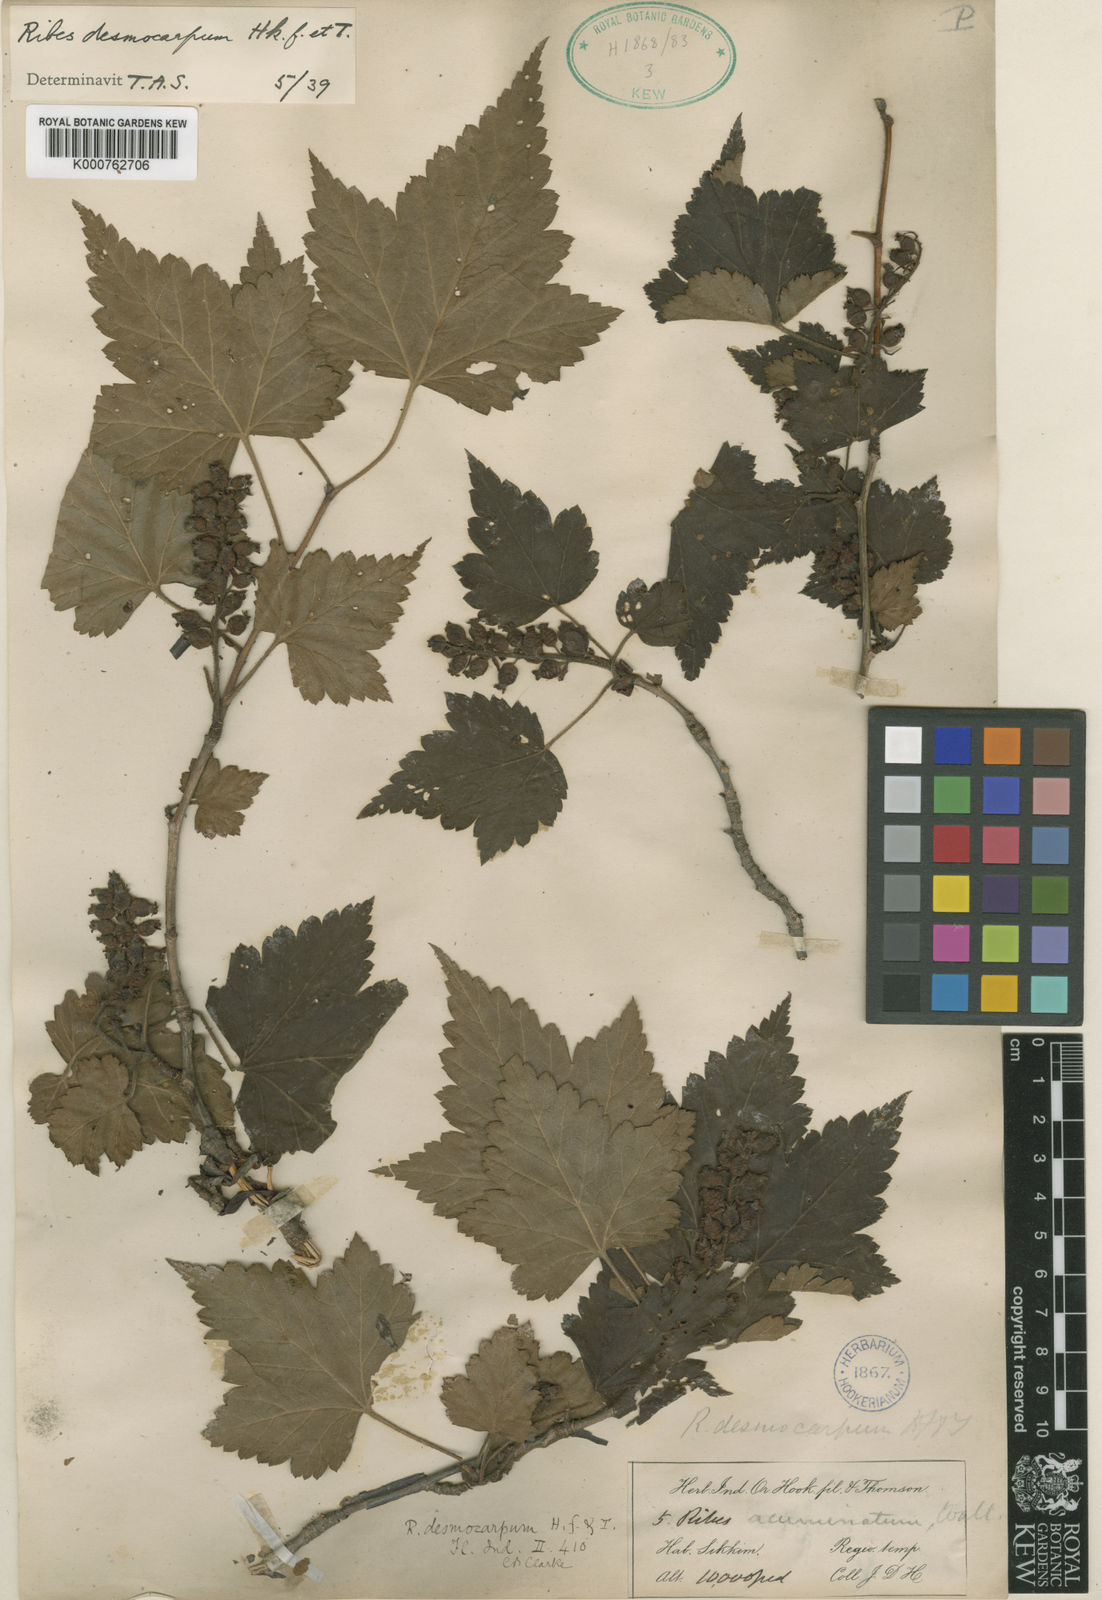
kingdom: Plantae
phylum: Tracheophyta
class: Magnoliopsida
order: Saxifragales
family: Grossulariaceae
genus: Ribes
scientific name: Ribes takare
